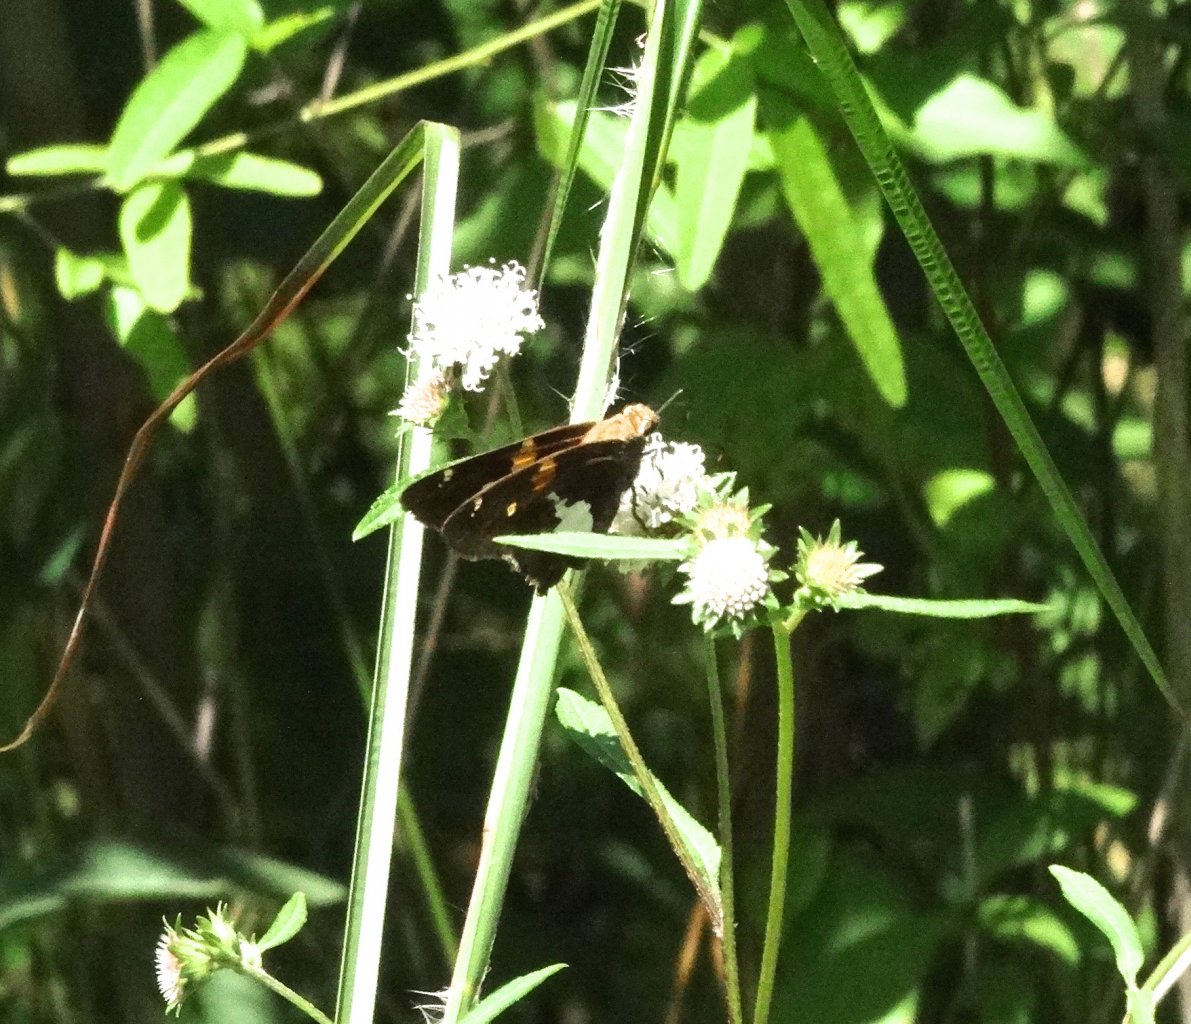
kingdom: Animalia
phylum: Arthropoda
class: Insecta
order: Lepidoptera
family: Hesperiidae
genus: Epargyreus
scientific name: Epargyreus clarus
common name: Silver-spotted Skipper
